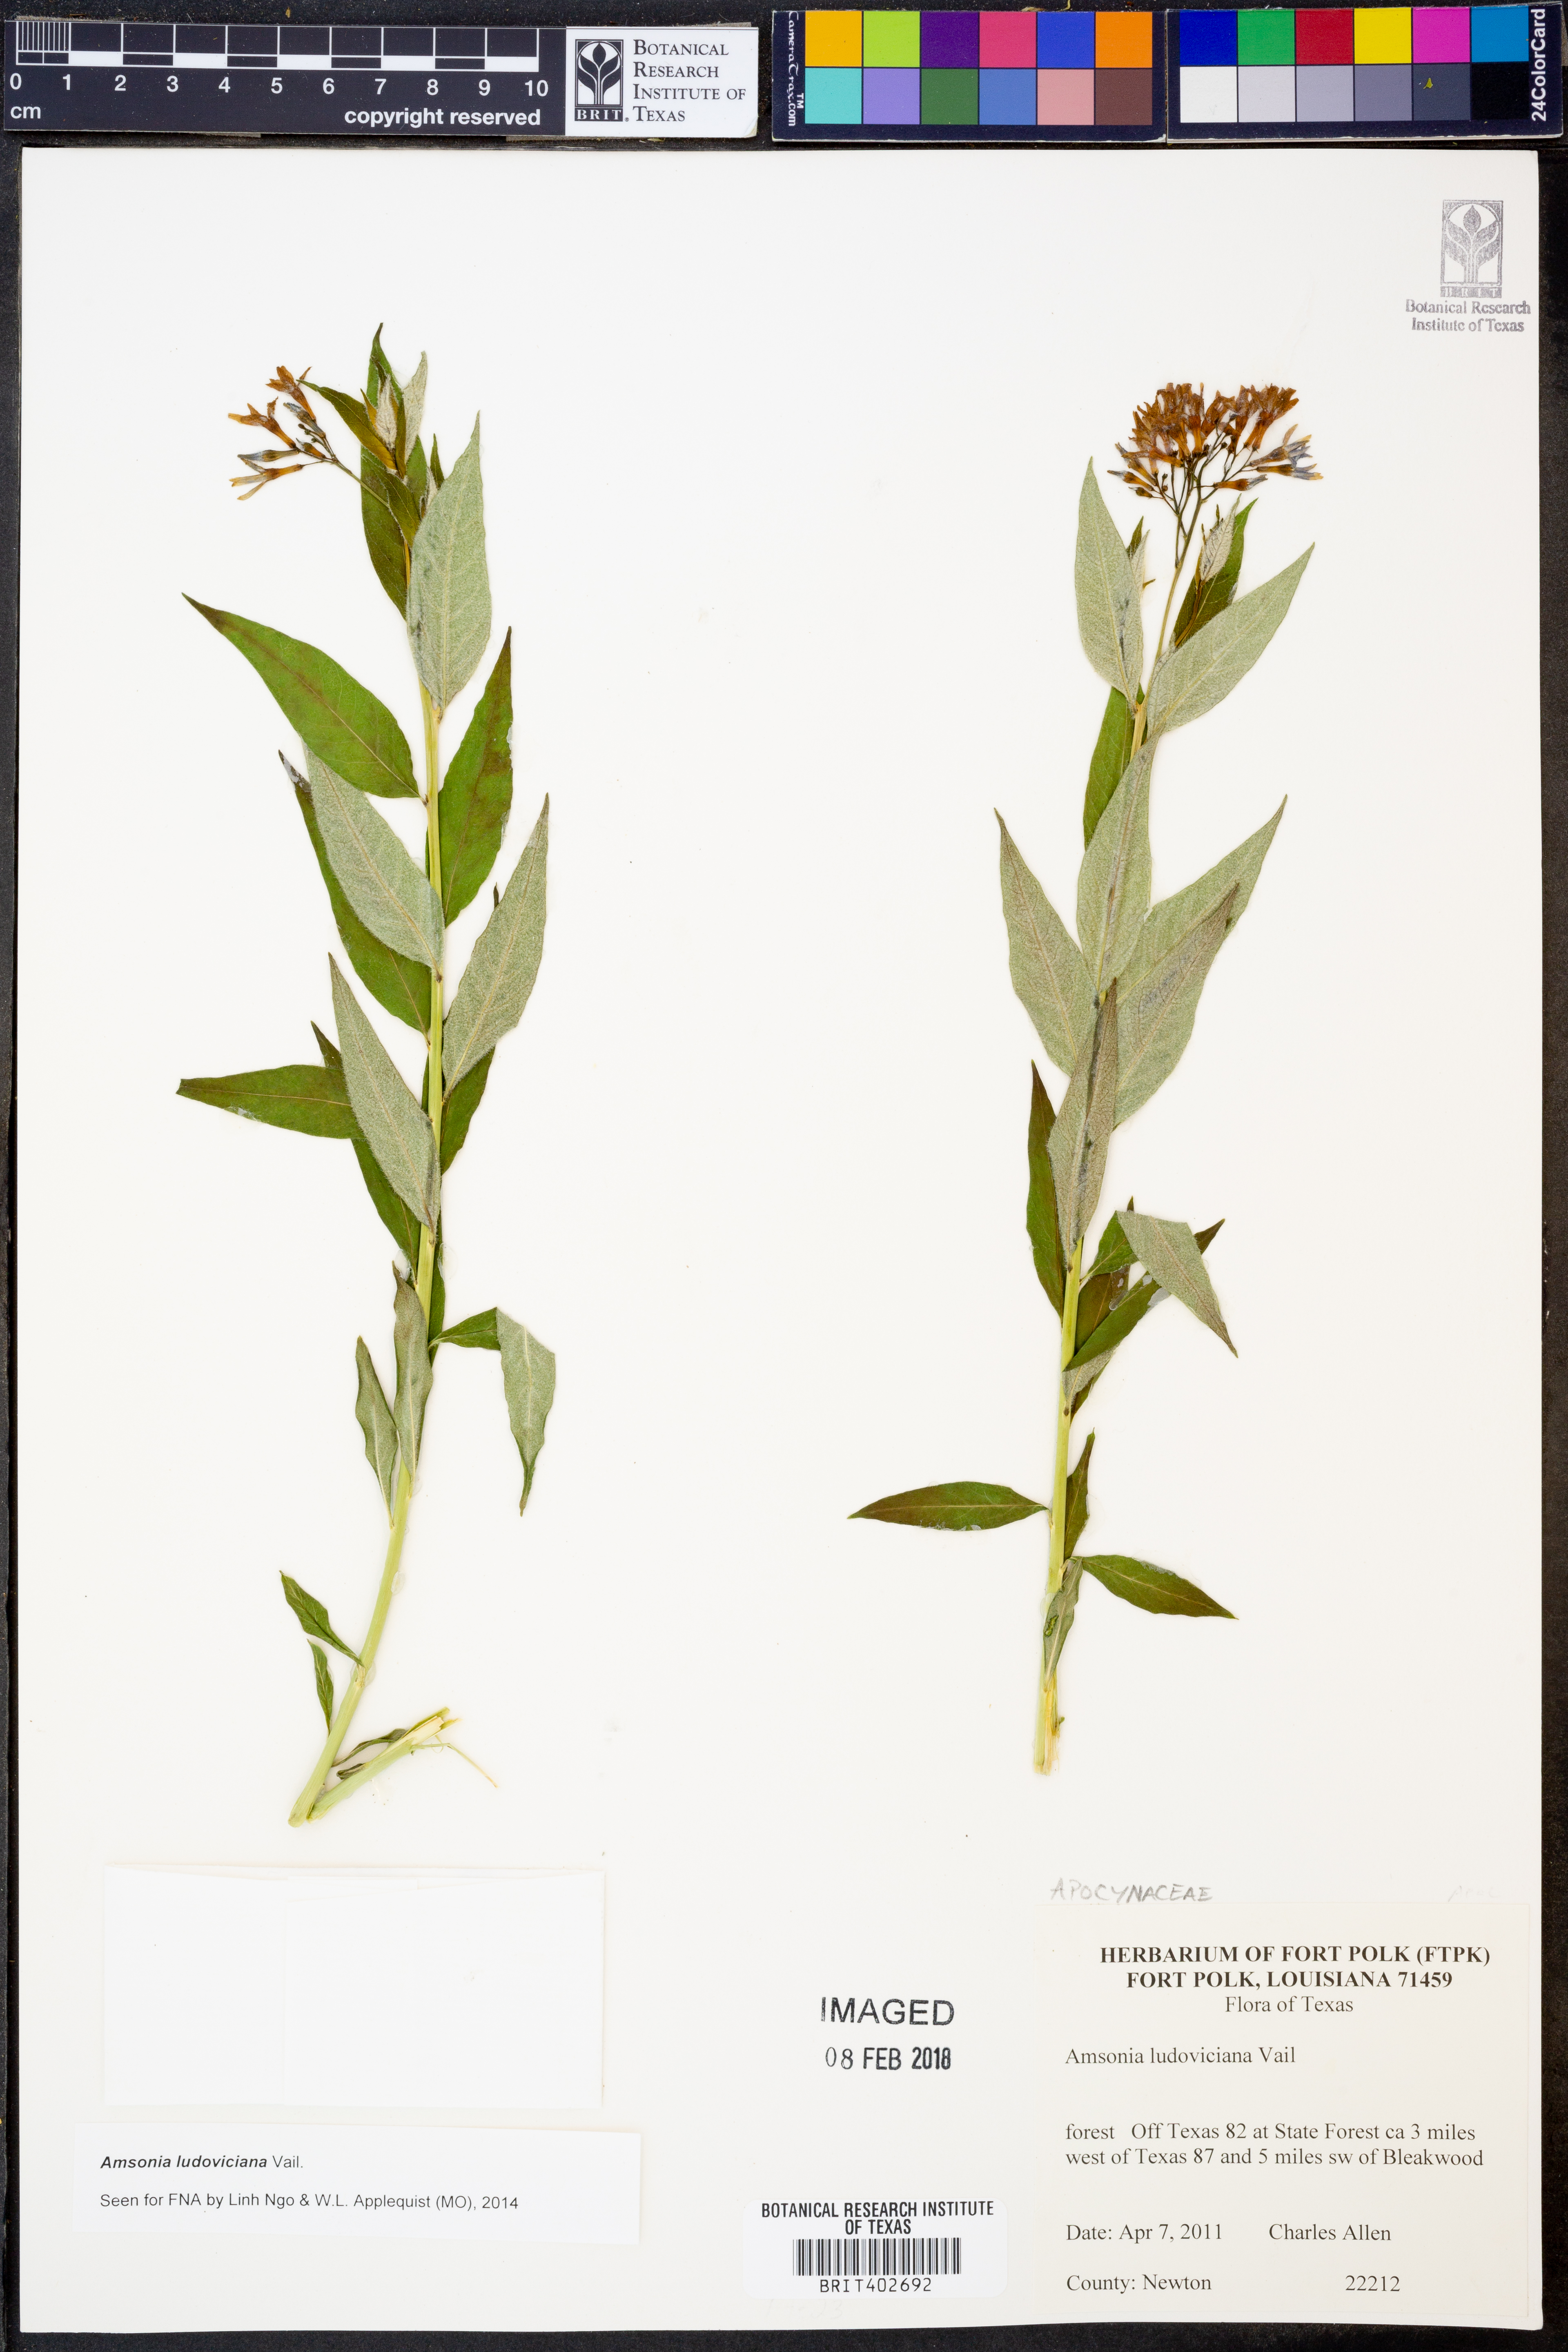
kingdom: Plantae
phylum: Tracheophyta
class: Magnoliopsida
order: Gentianales
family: Apocynaceae
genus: Amsonia
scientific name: Amsonia ludoviciana
